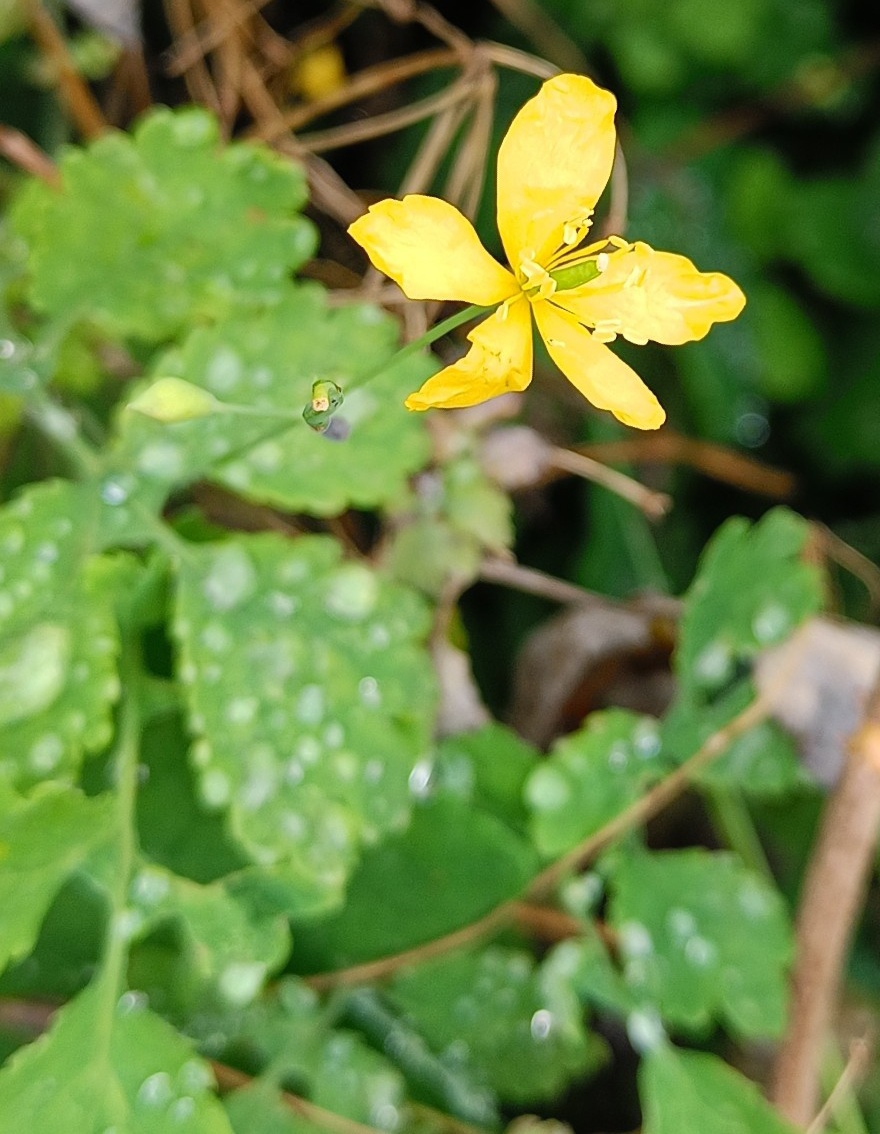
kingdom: Plantae
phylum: Tracheophyta
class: Magnoliopsida
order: Ranunculales
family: Papaveraceae
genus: Chelidonium
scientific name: Chelidonium majus
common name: Svaleurt
